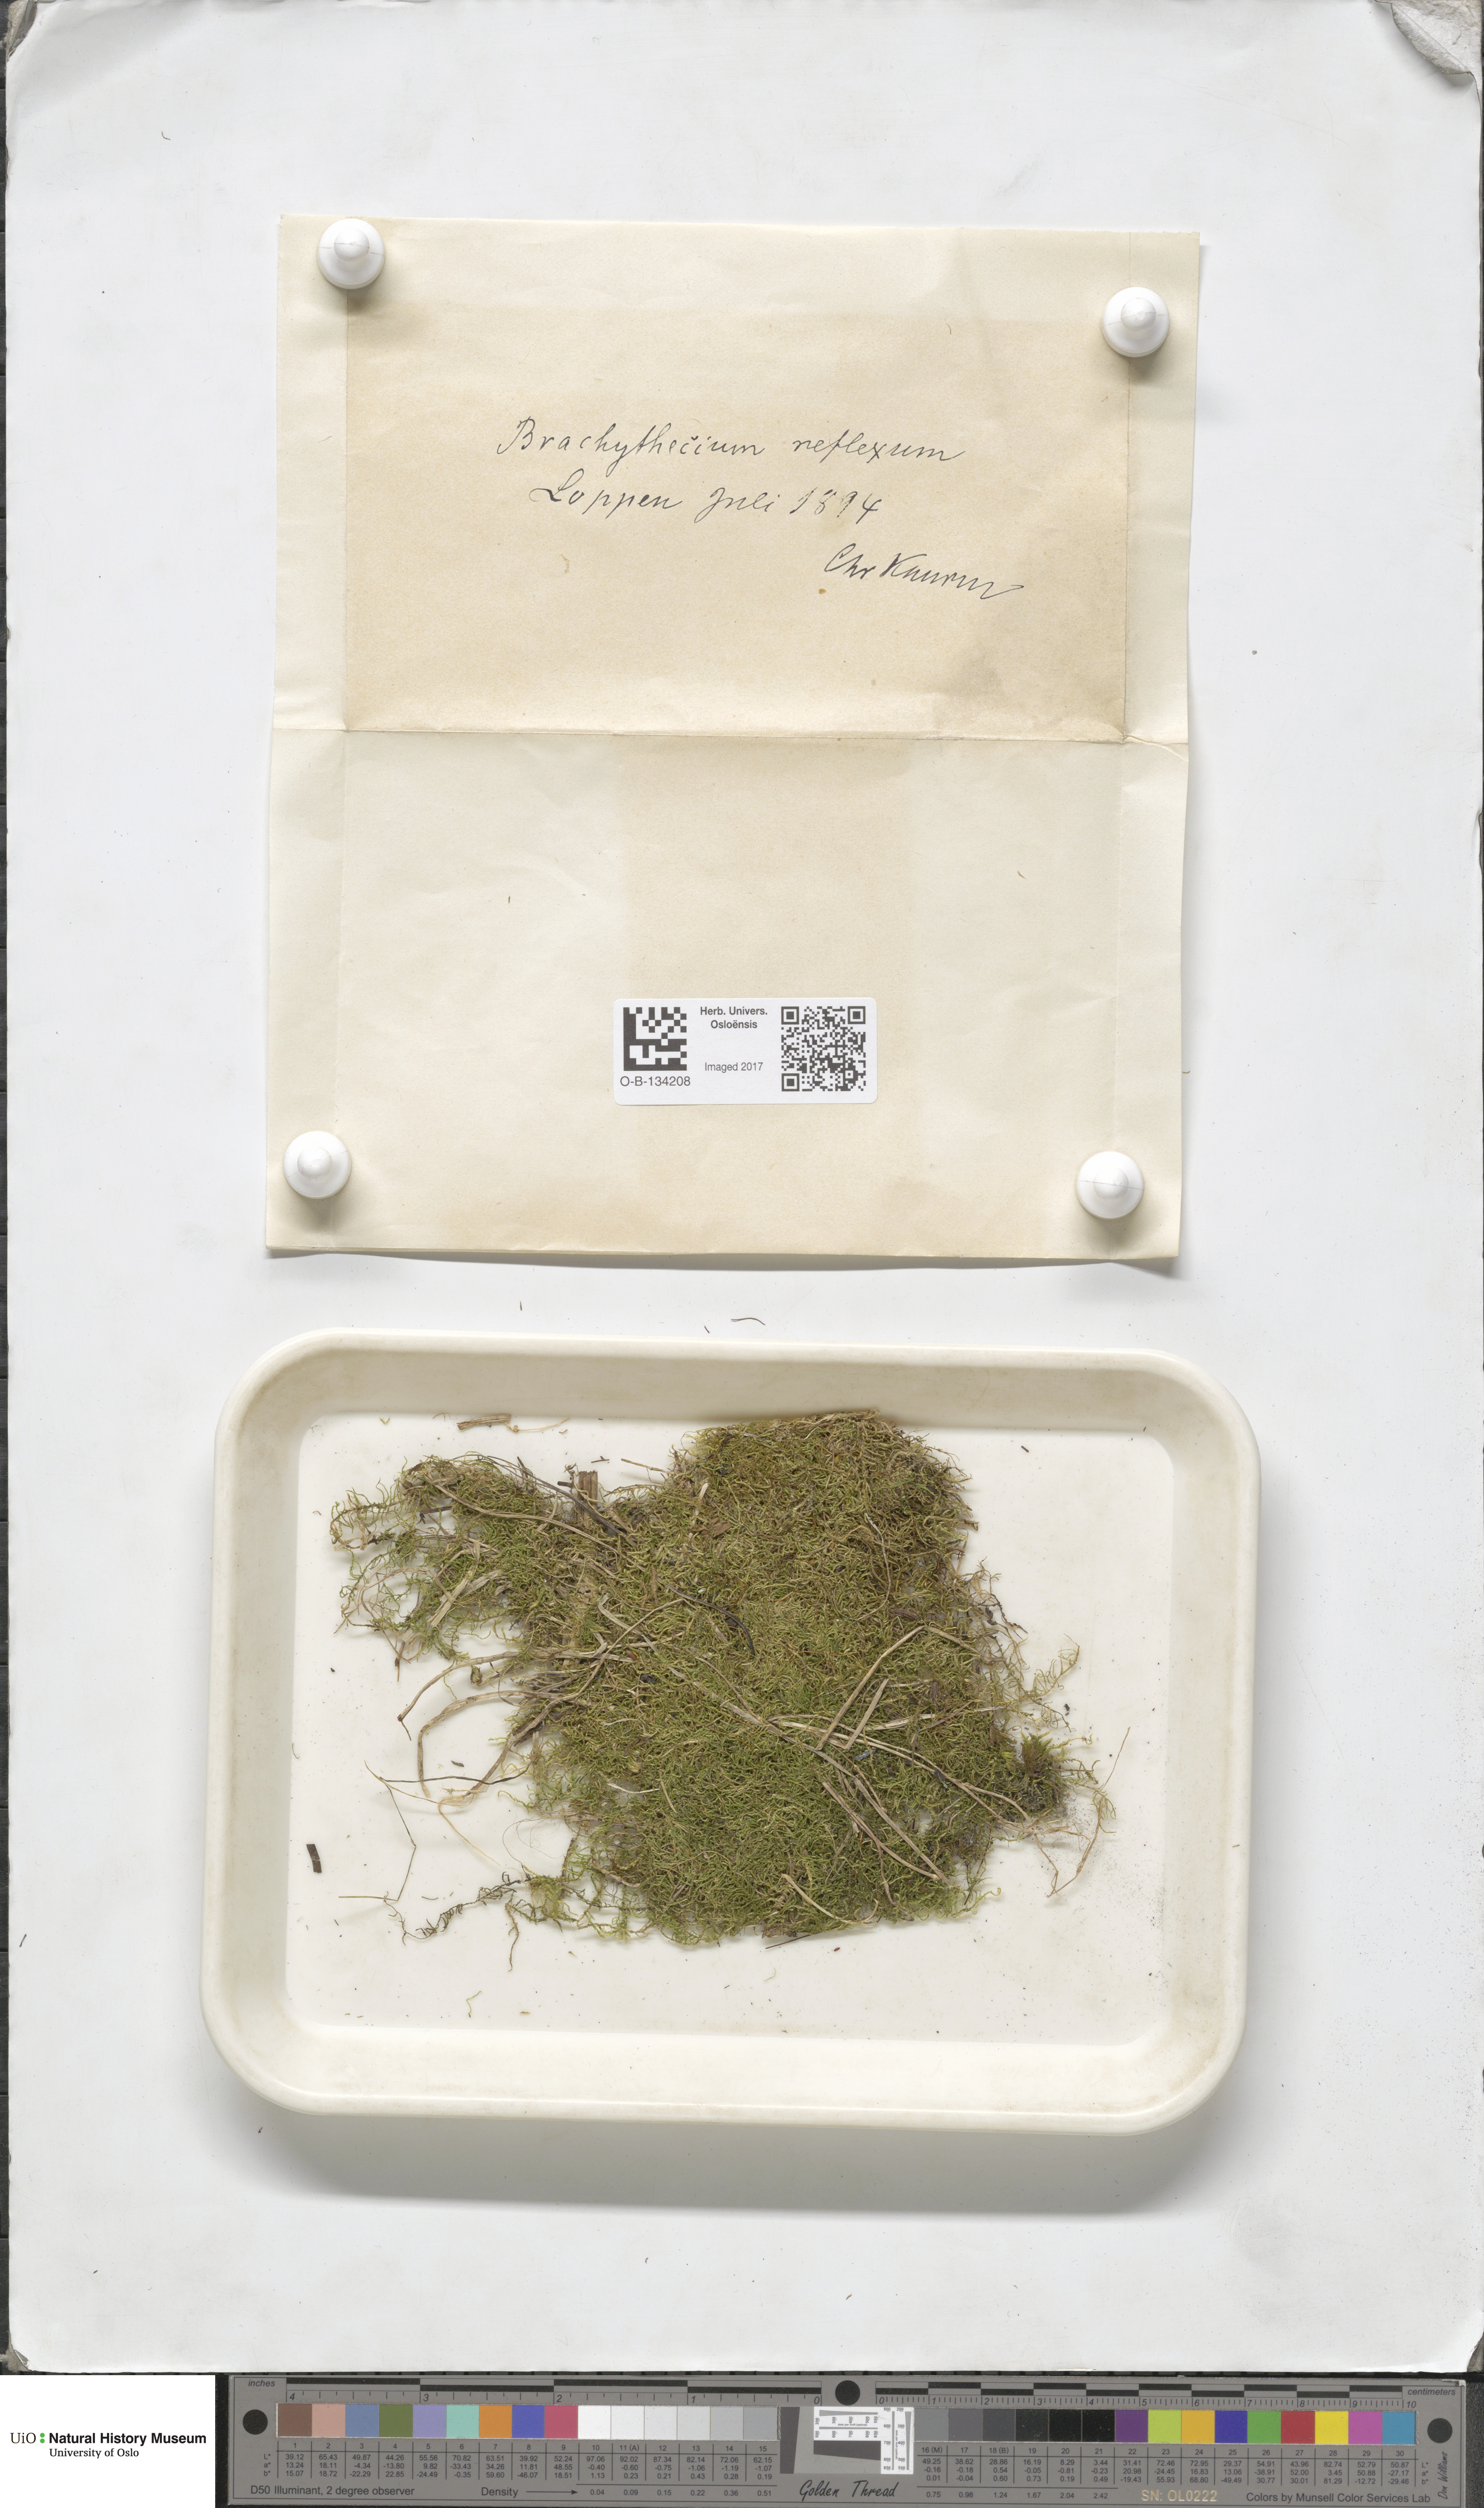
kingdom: Plantae
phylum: Bryophyta
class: Bryopsida
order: Hypnales
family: Brachytheciaceae
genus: Sciuro-hypnum
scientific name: Sciuro-hypnum reflexum
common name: Reflexed feather-moss
